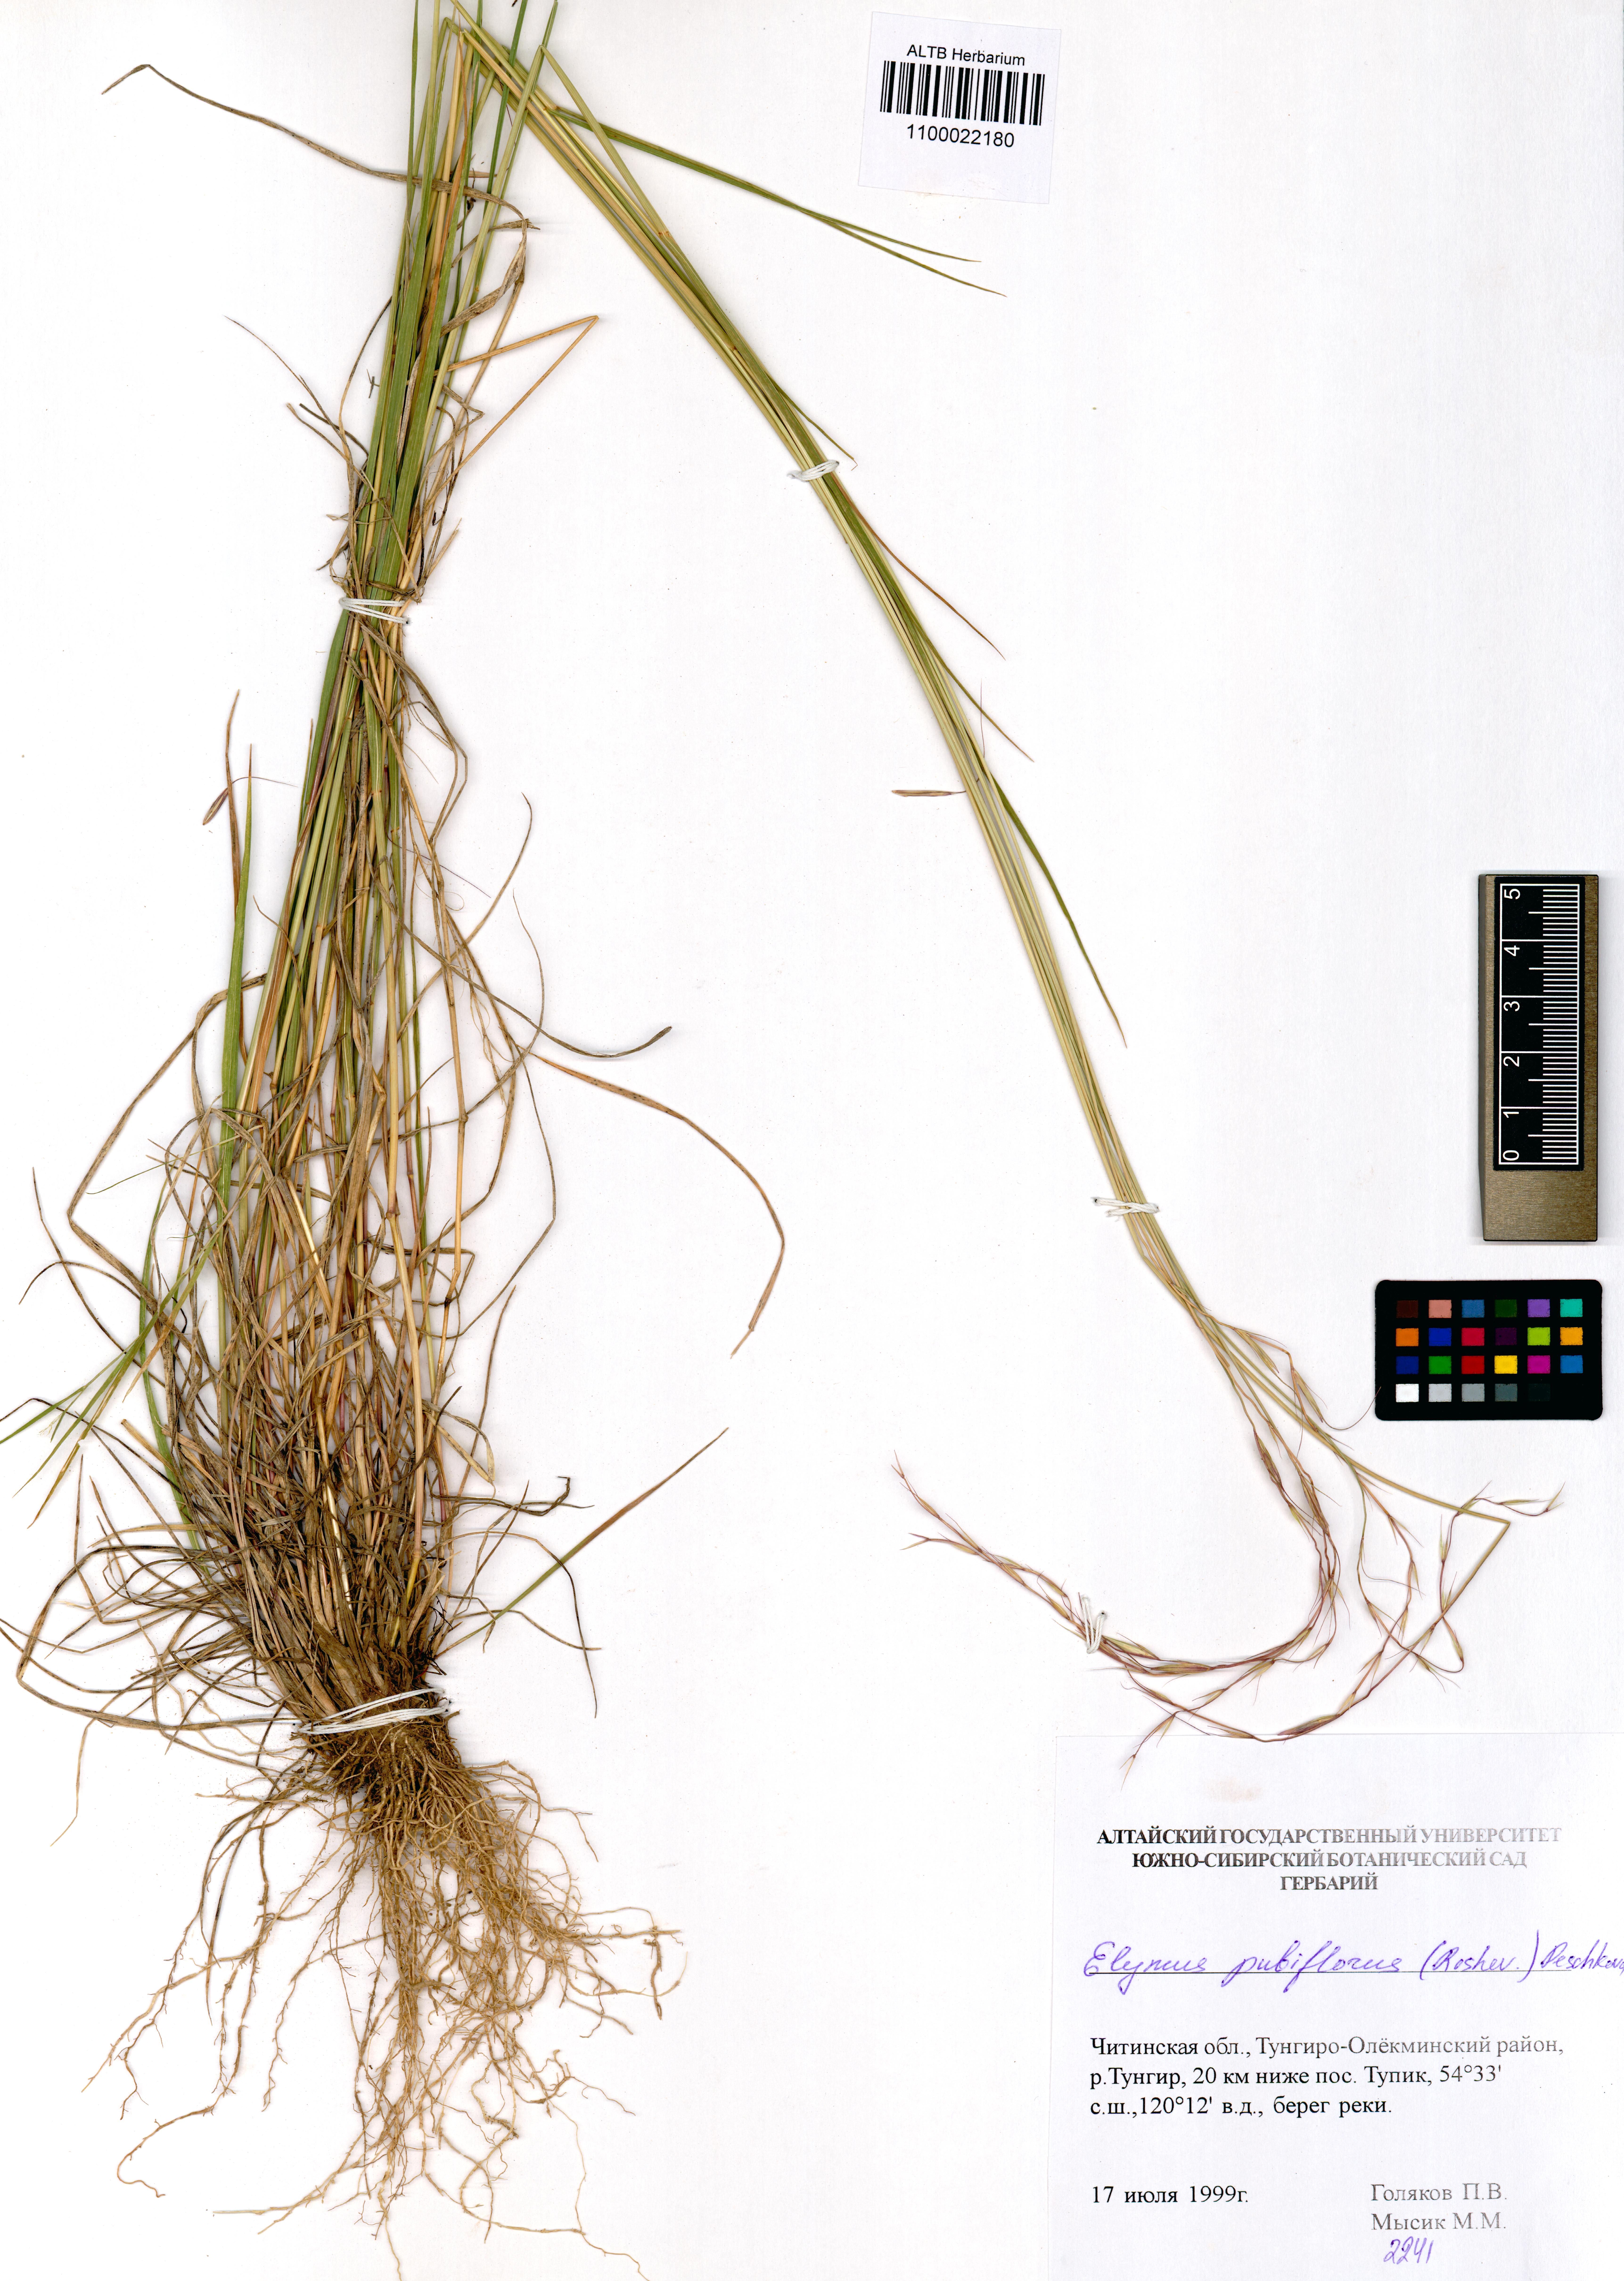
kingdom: Plantae
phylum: Tracheophyta
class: Liliopsida
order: Poales
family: Poaceae
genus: Elymus
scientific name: Elymus confusus
